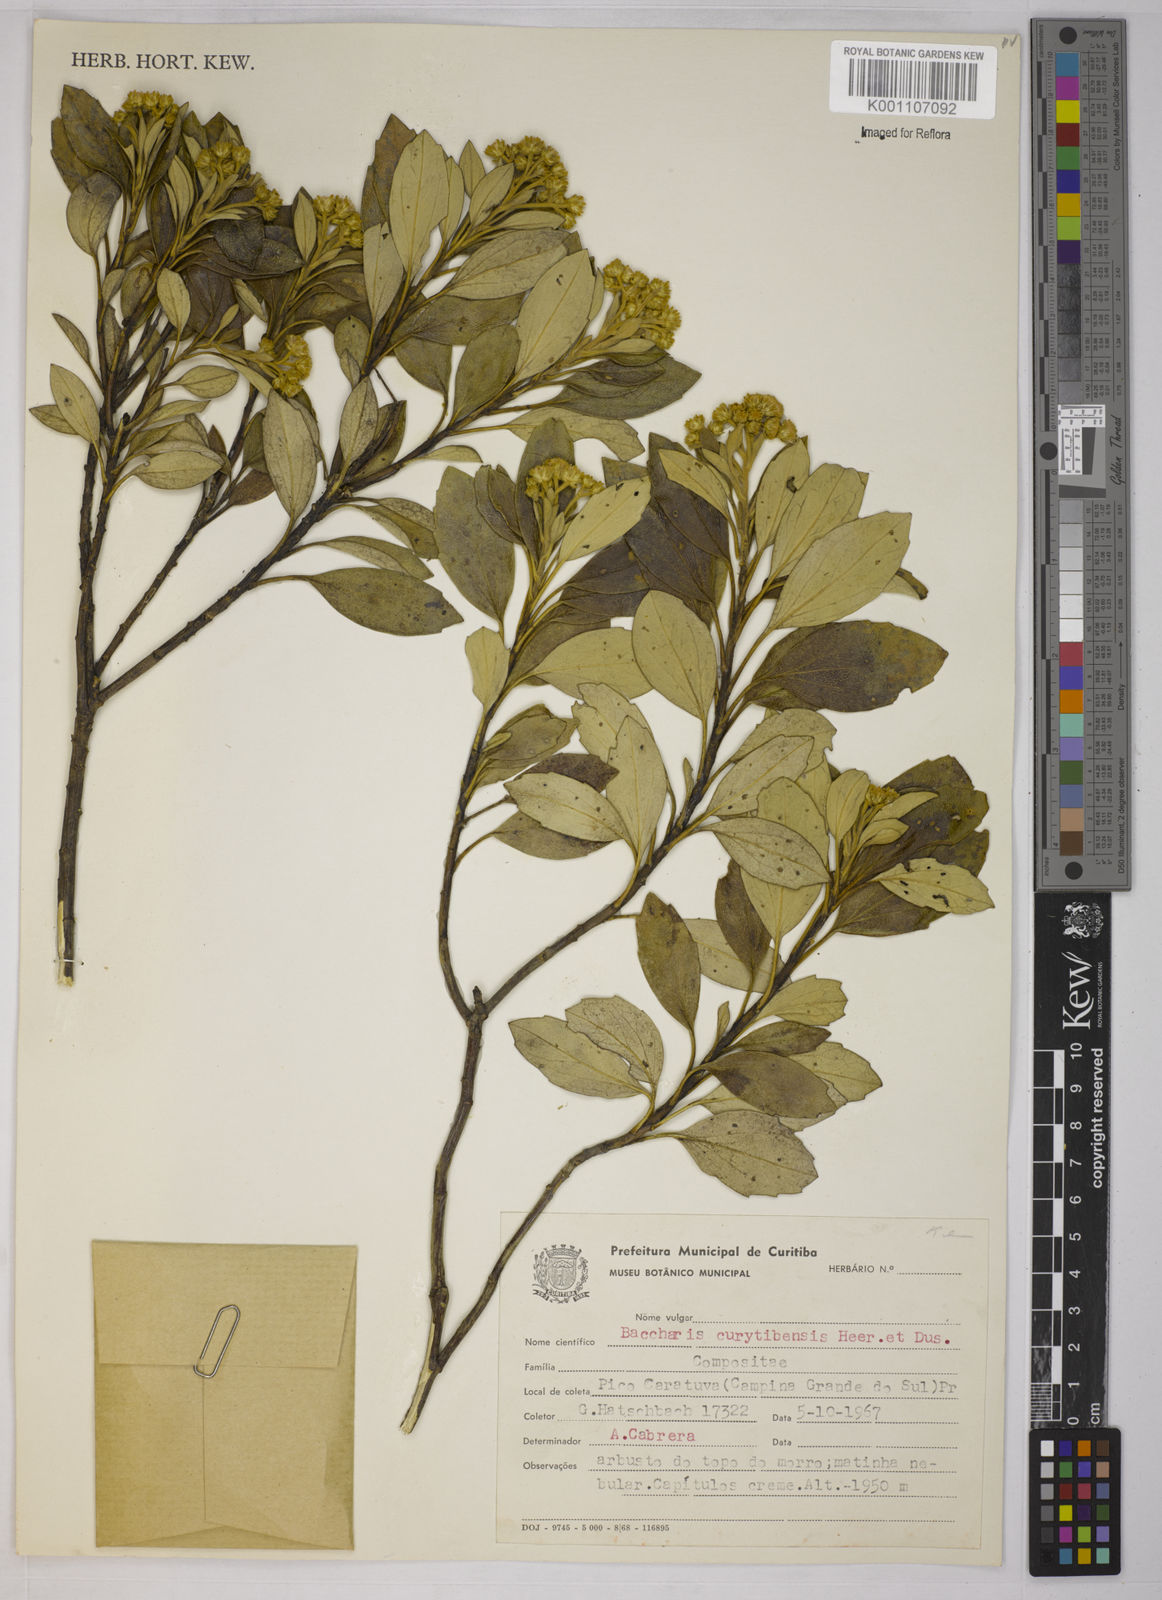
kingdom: Plantae
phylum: Tracheophyta
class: Magnoliopsida
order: Asterales
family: Asteraceae
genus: Baccharis
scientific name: Baccharis curitybensis
